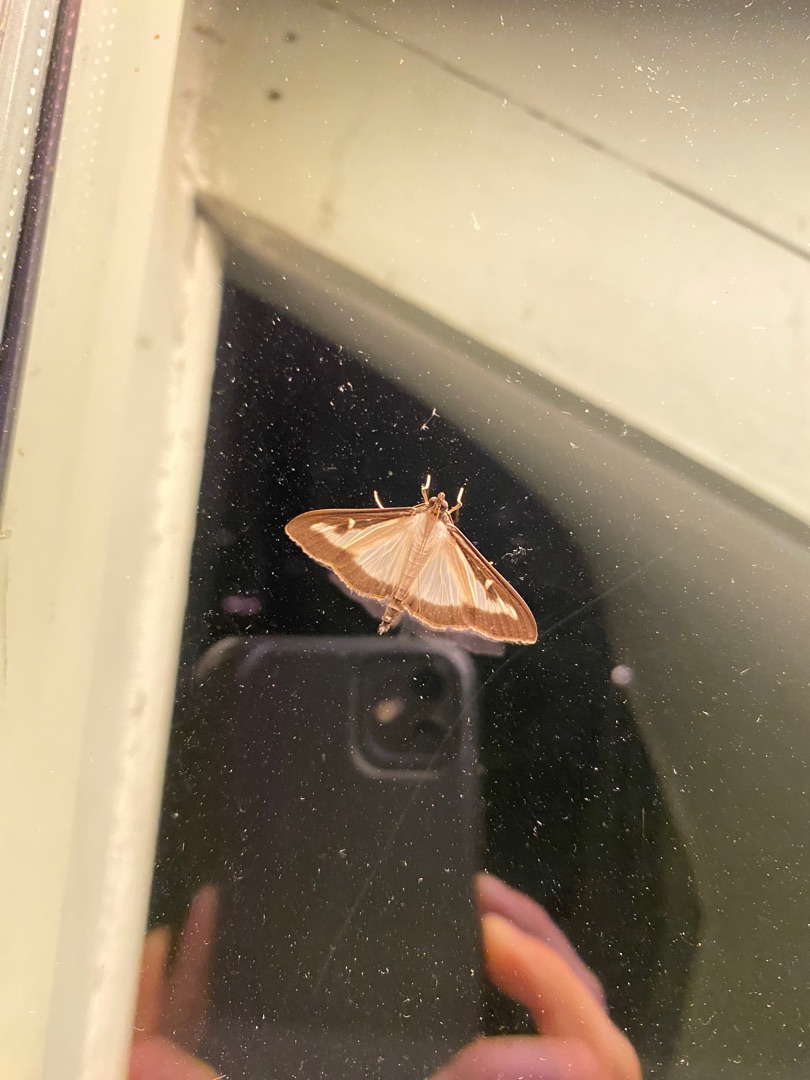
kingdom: Animalia
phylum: Arthropoda
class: Insecta
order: Lepidoptera
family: Crambidae
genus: Cydalima
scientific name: Cydalima perspectalis
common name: Buksbomhalvmøl
